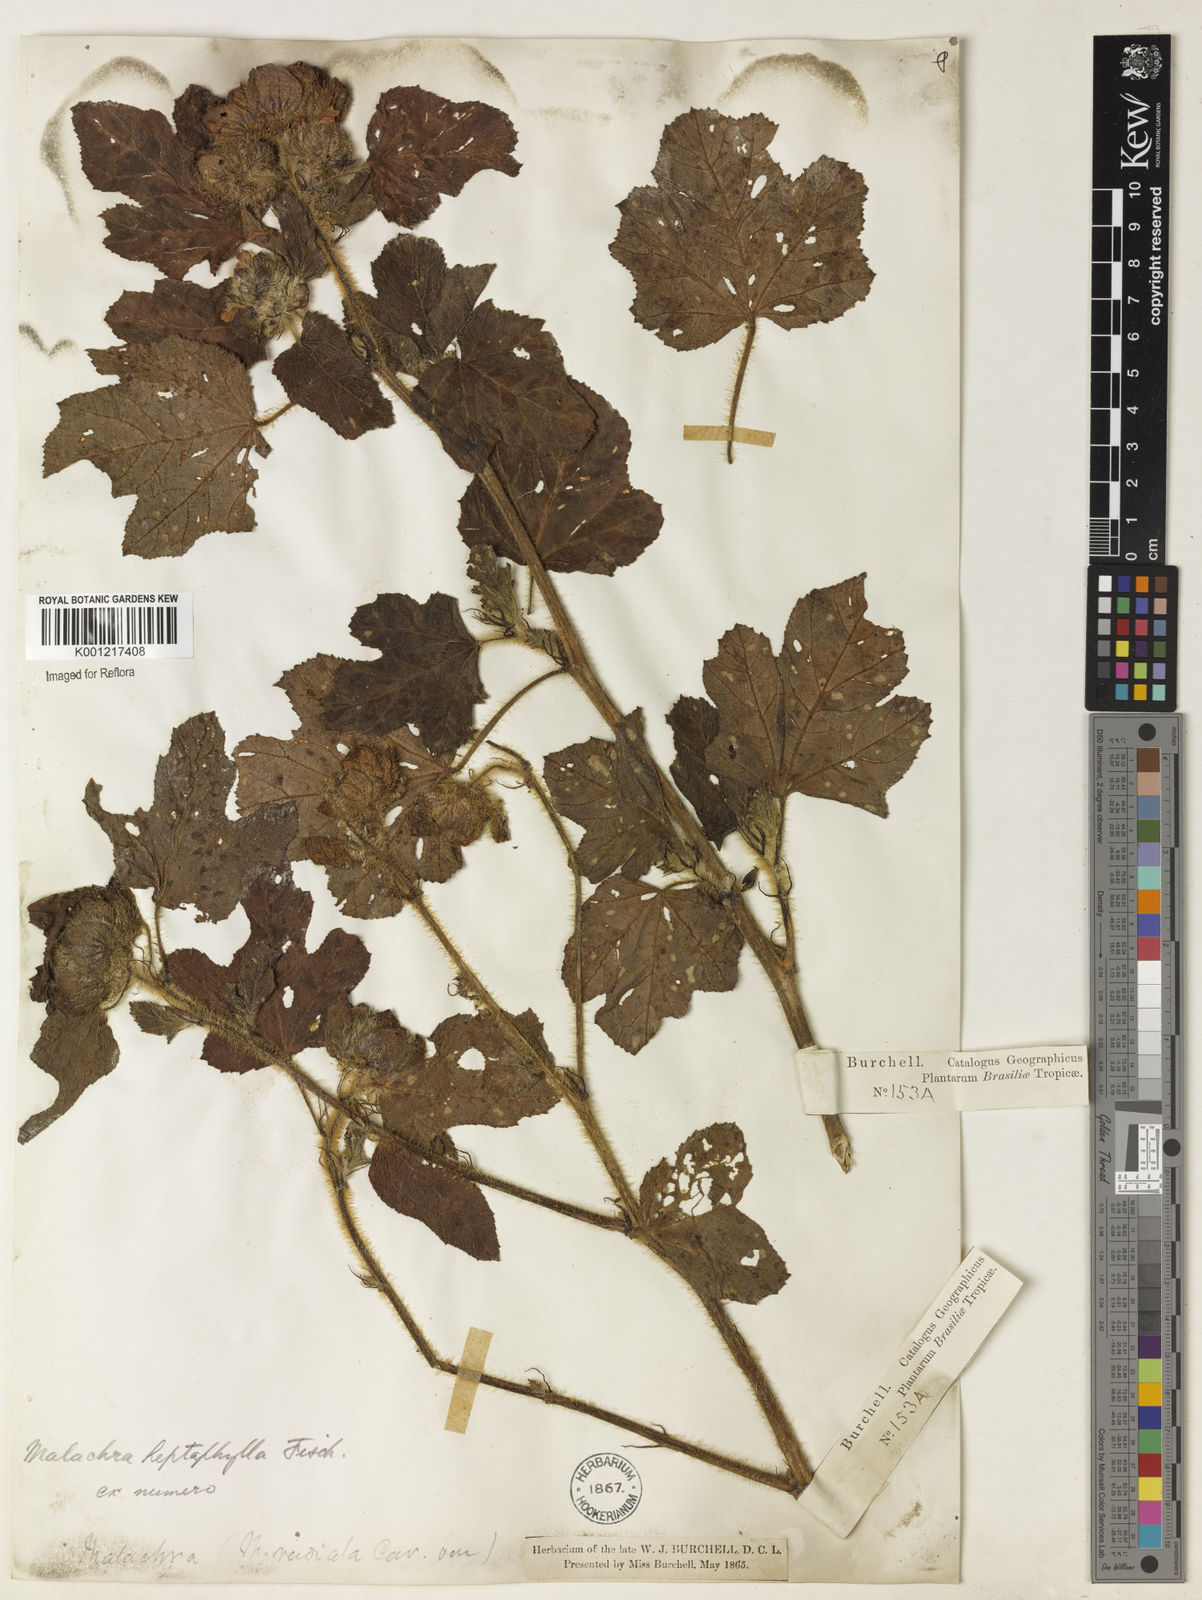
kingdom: Plantae
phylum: Tracheophyta
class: Magnoliopsida
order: Malvales
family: Malvaceae
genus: Malachra
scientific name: Malachra capitata
